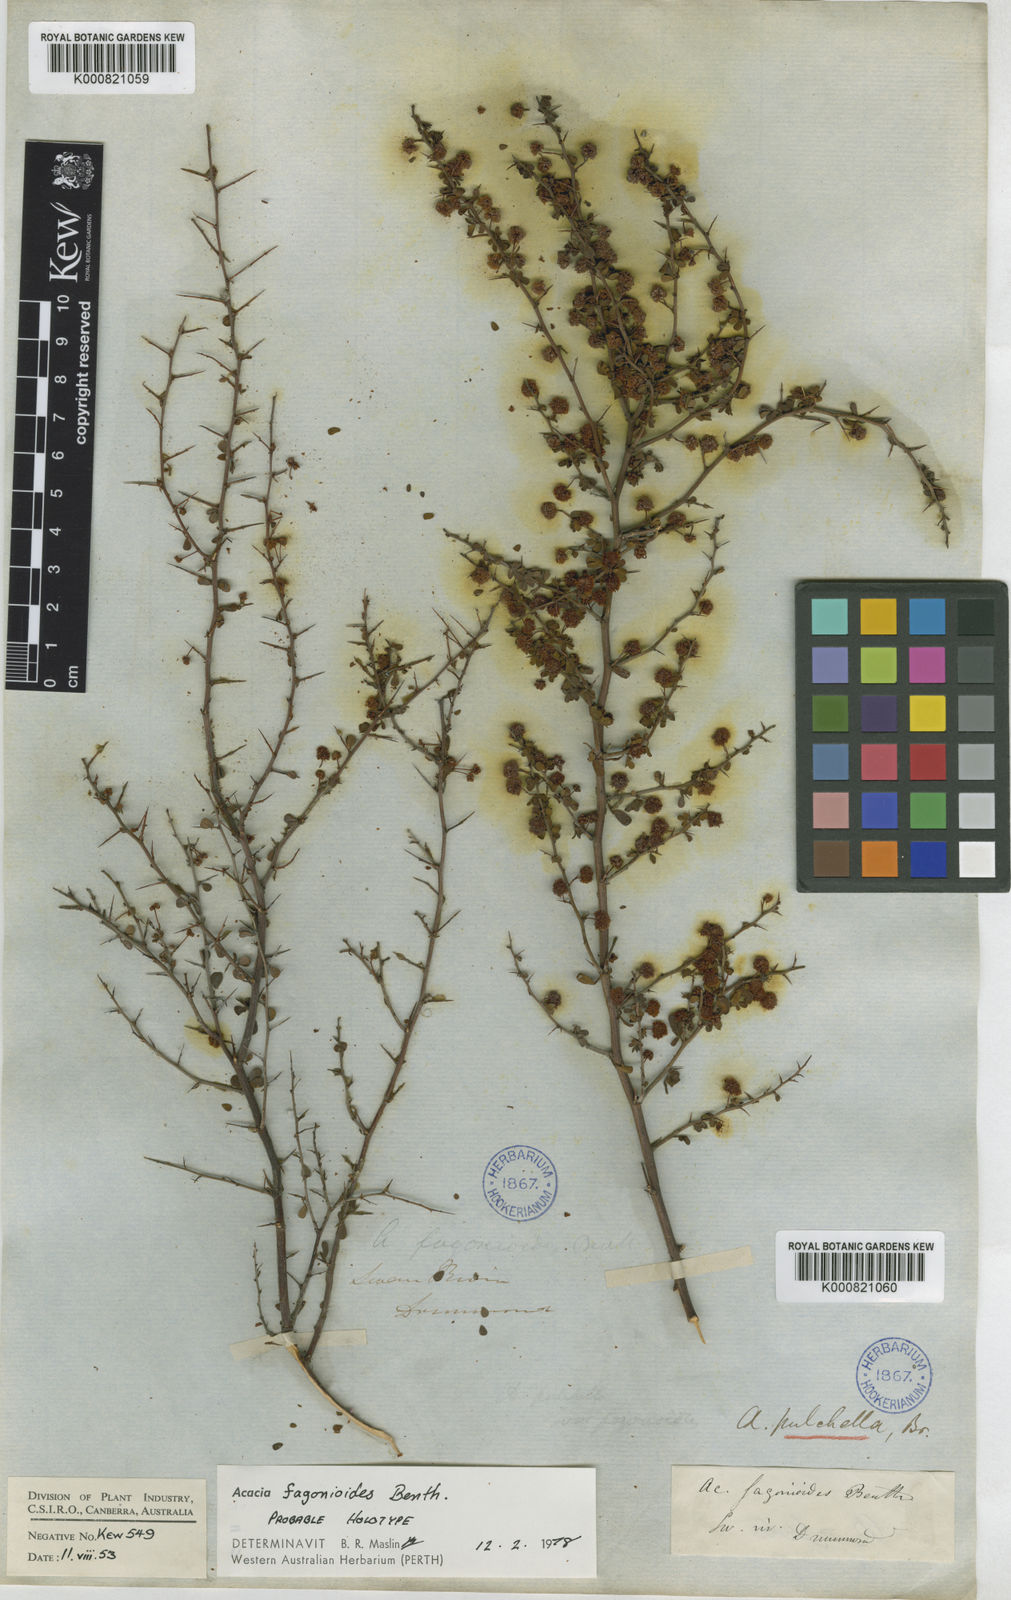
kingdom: Plantae
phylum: Tracheophyta
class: Magnoliopsida
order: Fabales
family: Fabaceae
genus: Acacia
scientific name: Acacia fagonioides
